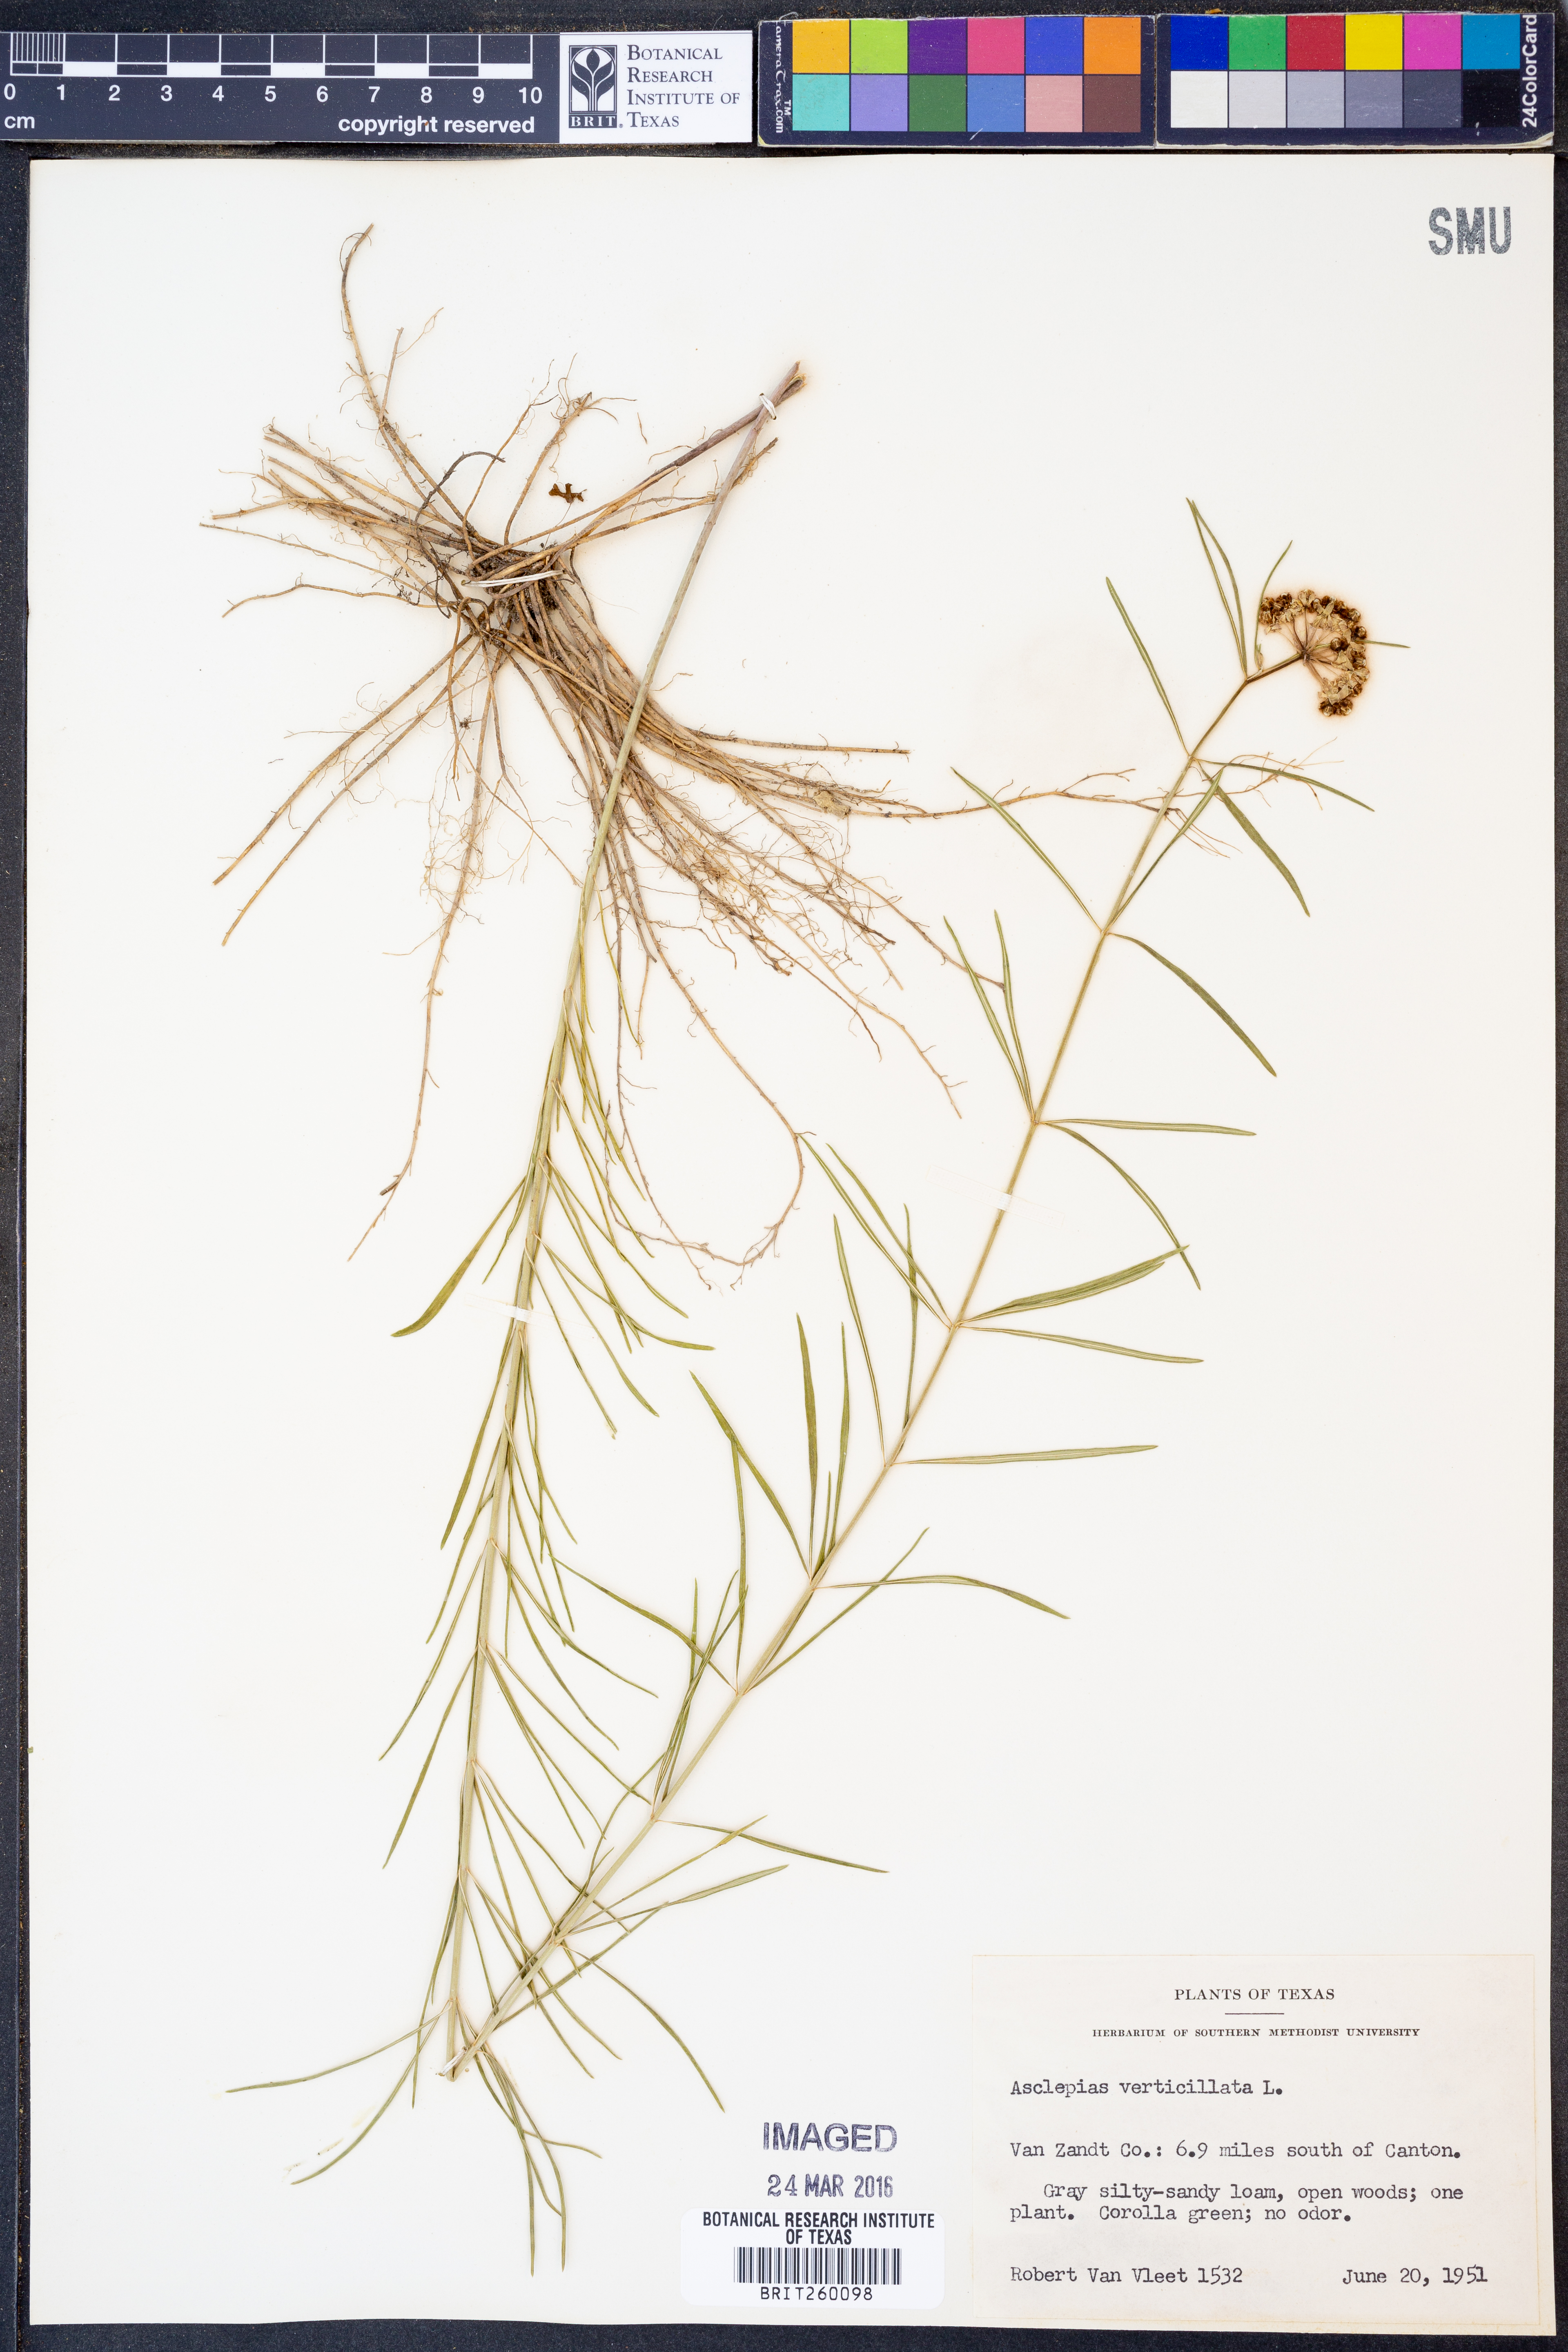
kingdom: Plantae
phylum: Tracheophyta
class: Magnoliopsida
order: Gentianales
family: Apocynaceae
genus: Asclepias
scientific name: Asclepias verticillata
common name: Eastern whorled milkweed
